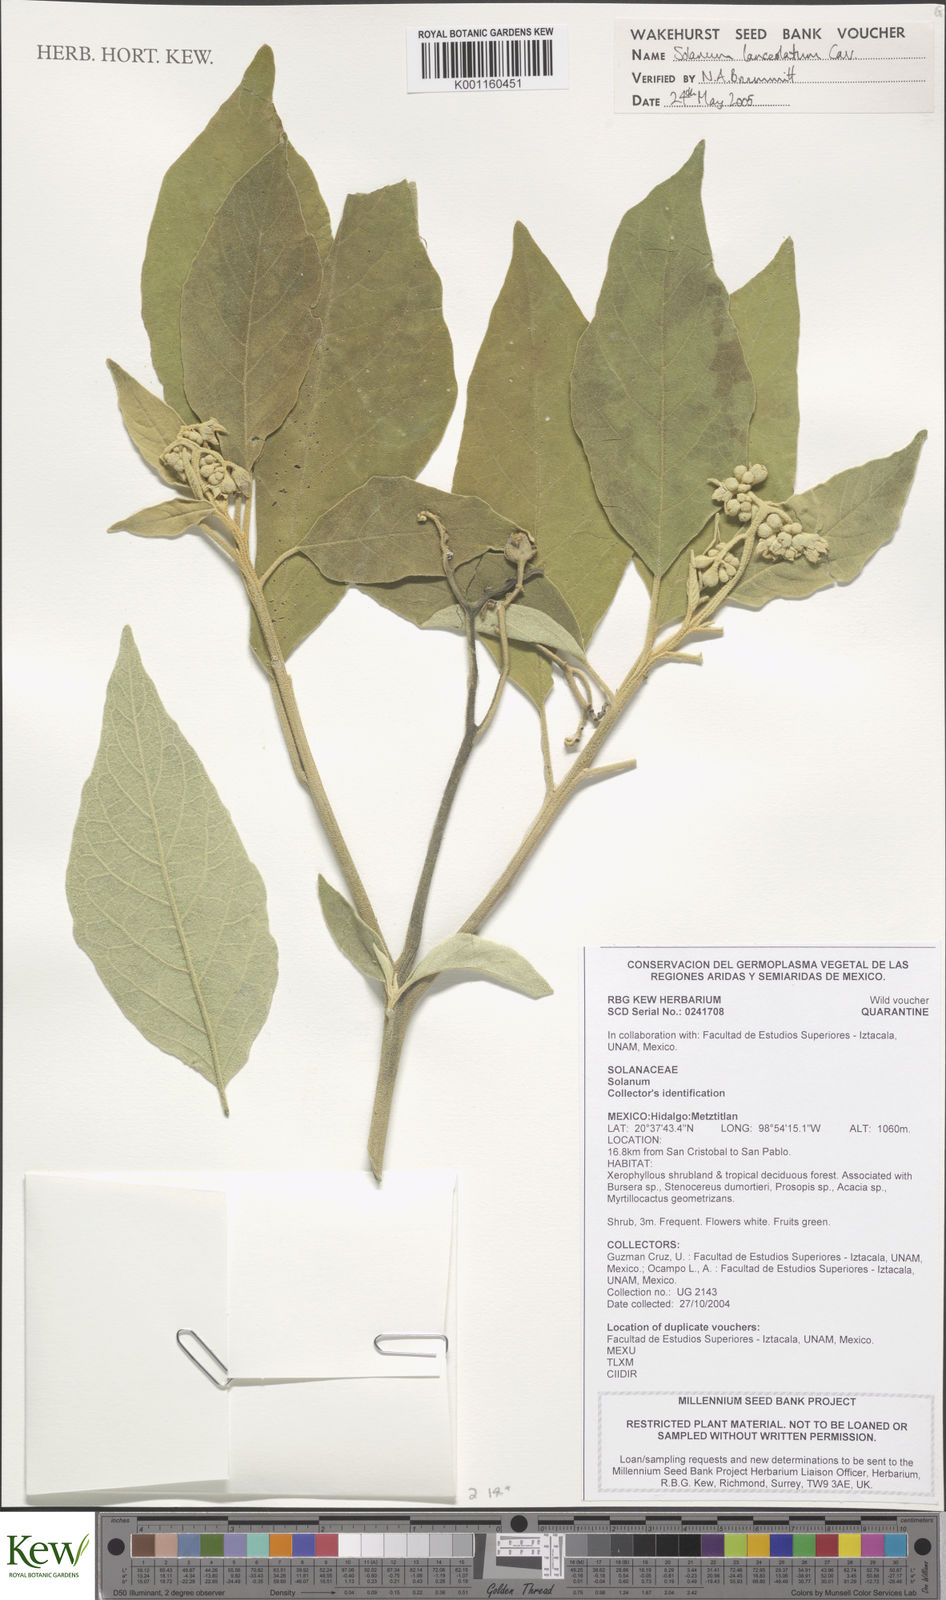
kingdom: Plantae
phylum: Tracheophyta
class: Magnoliopsida
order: Solanales
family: Solanaceae
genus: Solanum
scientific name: Solanum lanceolatum
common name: Orangeberry nightshade
